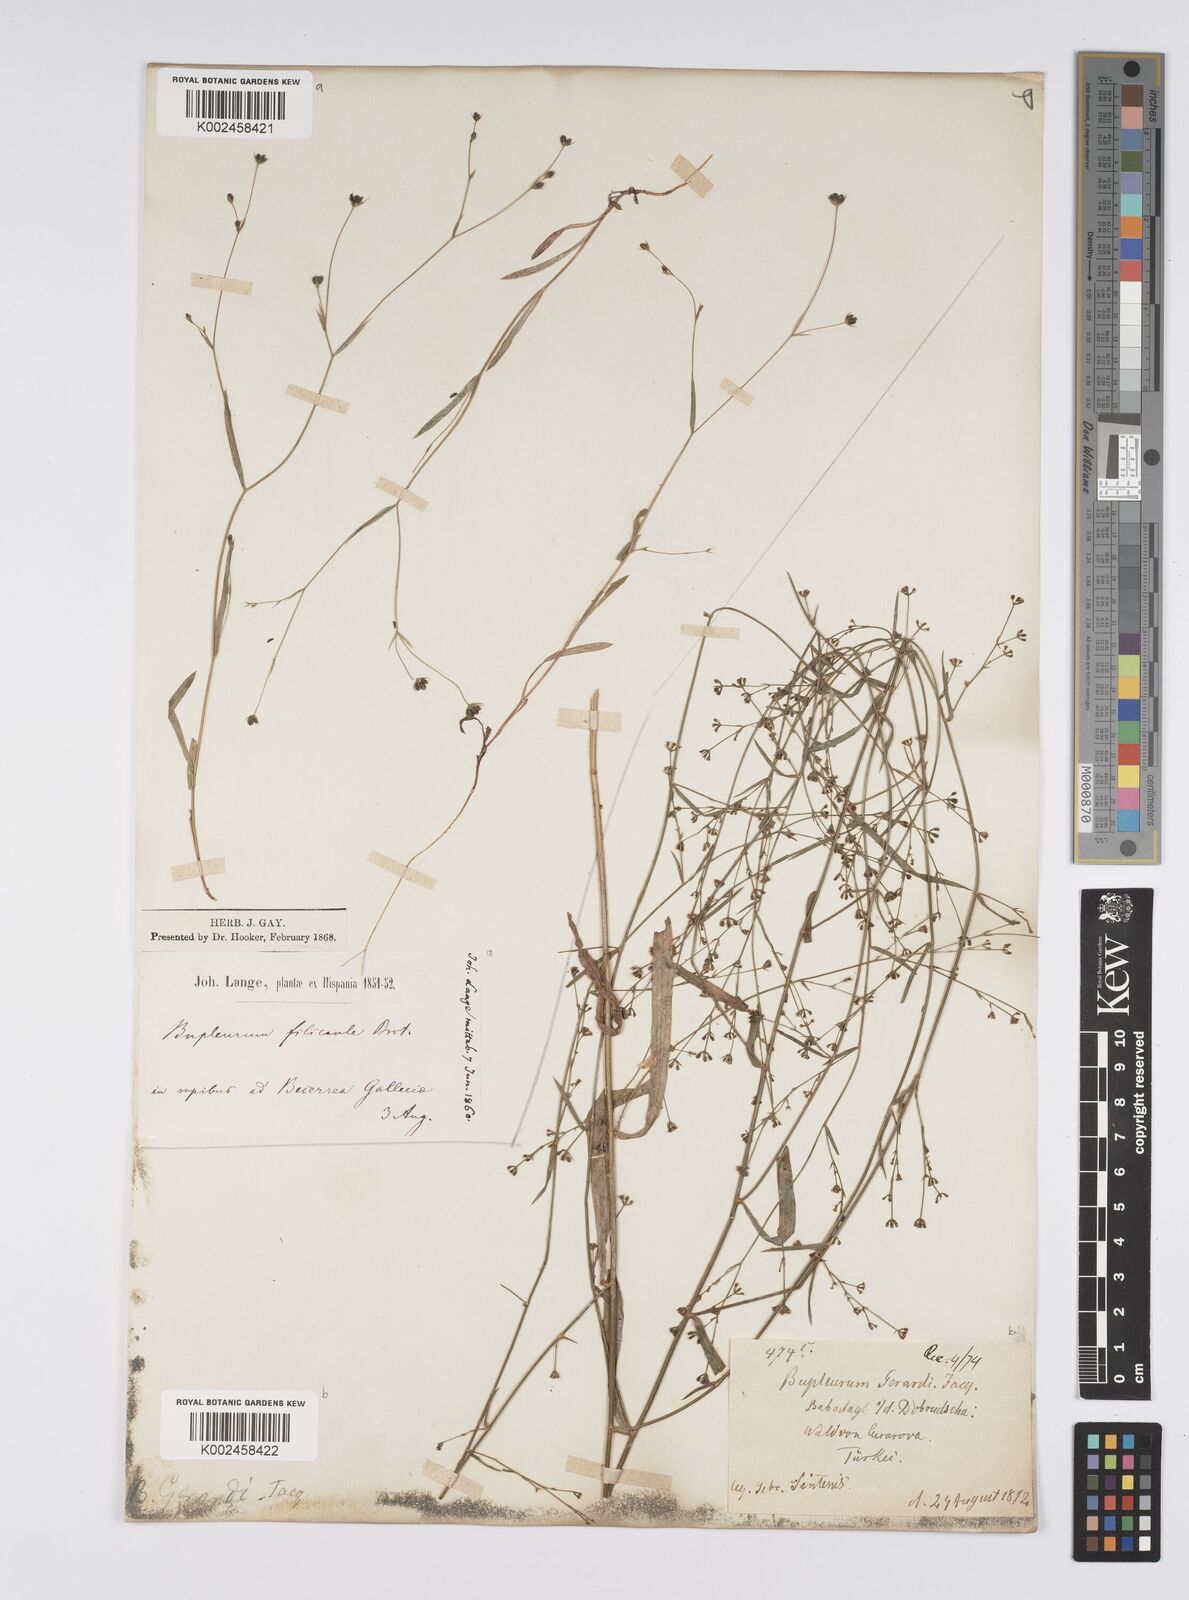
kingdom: Plantae
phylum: Tracheophyta
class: Magnoliopsida
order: Apiales
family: Apiaceae
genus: Bupleurum
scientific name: Bupleurum affine
